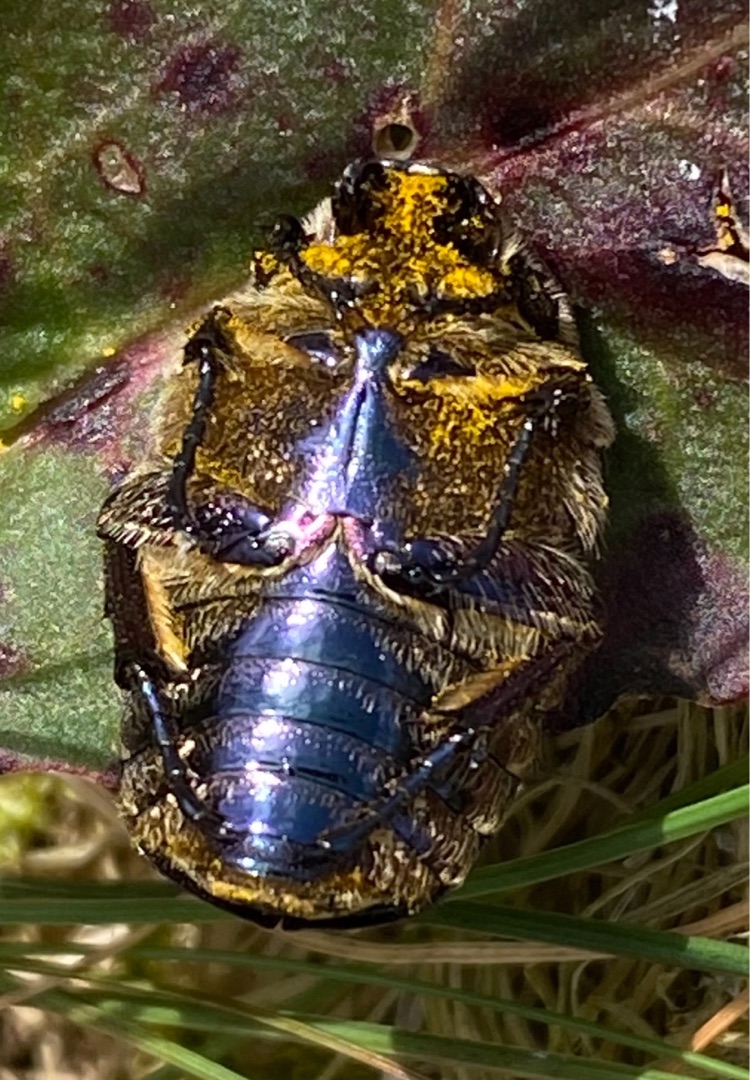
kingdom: Animalia
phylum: Arthropoda
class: Insecta
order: Coleoptera
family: Scarabaeidae
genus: Protaetia
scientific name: Protaetia cuprea
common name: Kobberguldbasse
